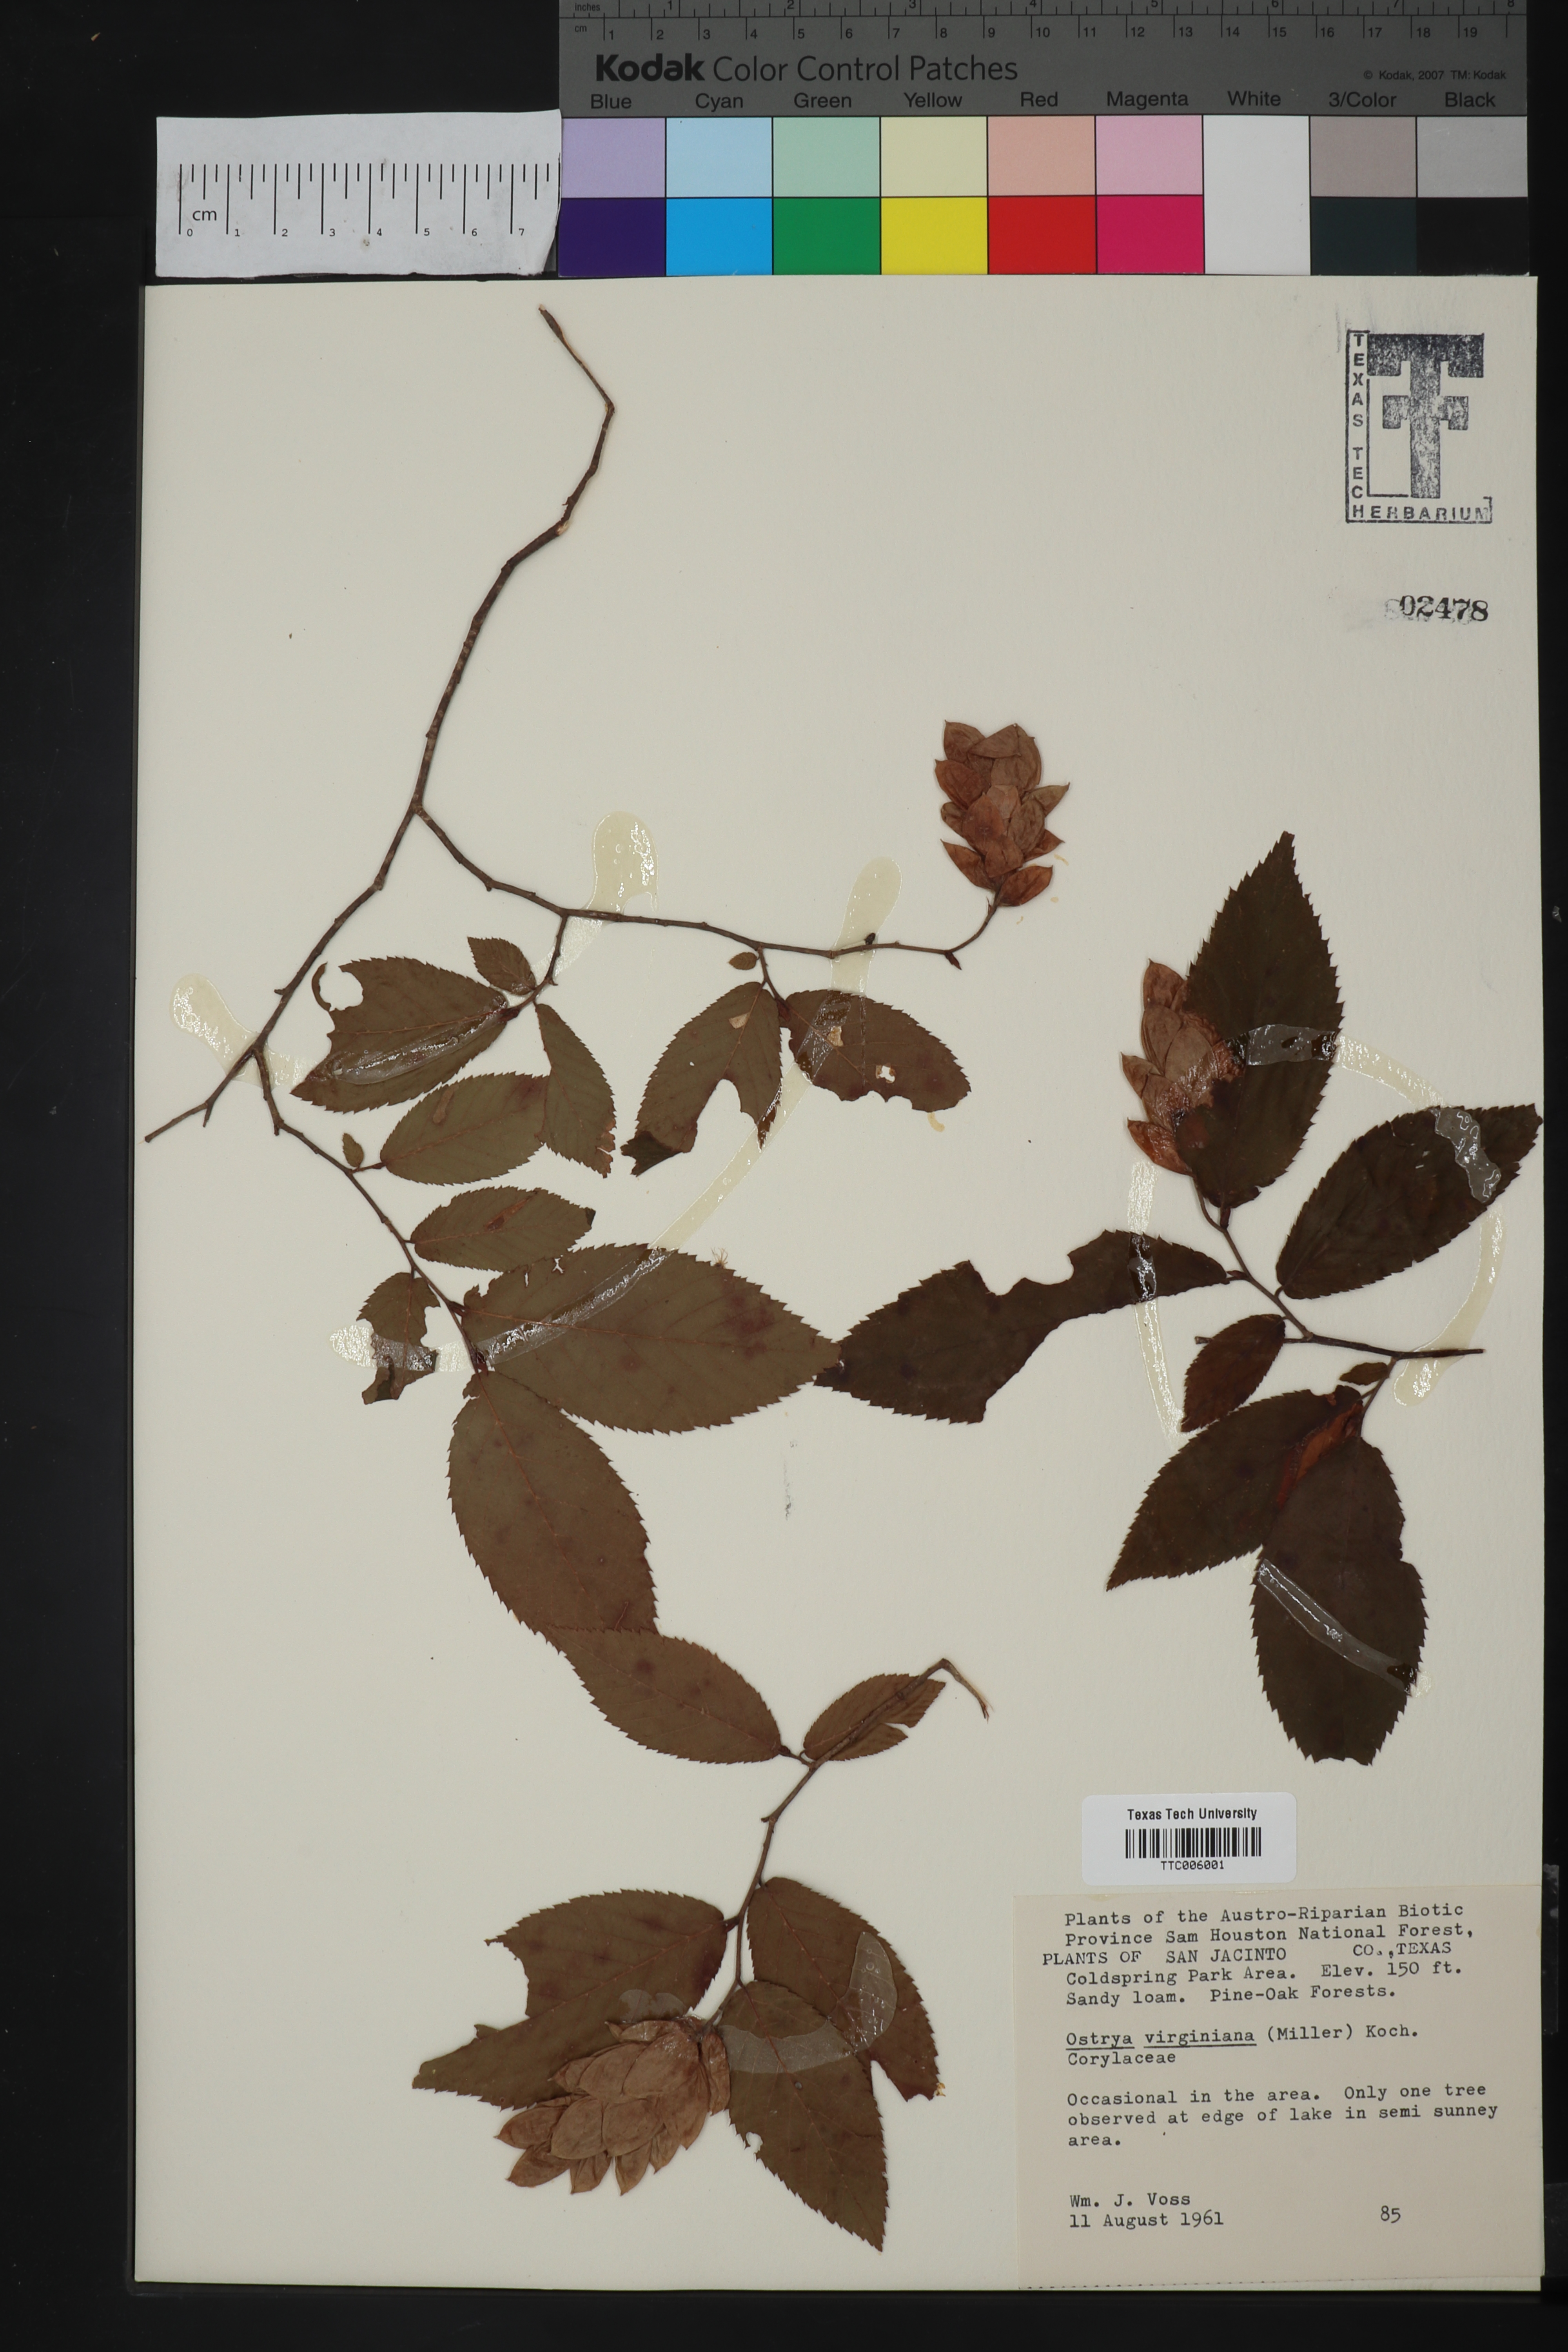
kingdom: Plantae
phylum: Tracheophyta
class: Magnoliopsida
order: Fagales
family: Betulaceae
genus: Ostrya
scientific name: Ostrya virginiana
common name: Ironwood
